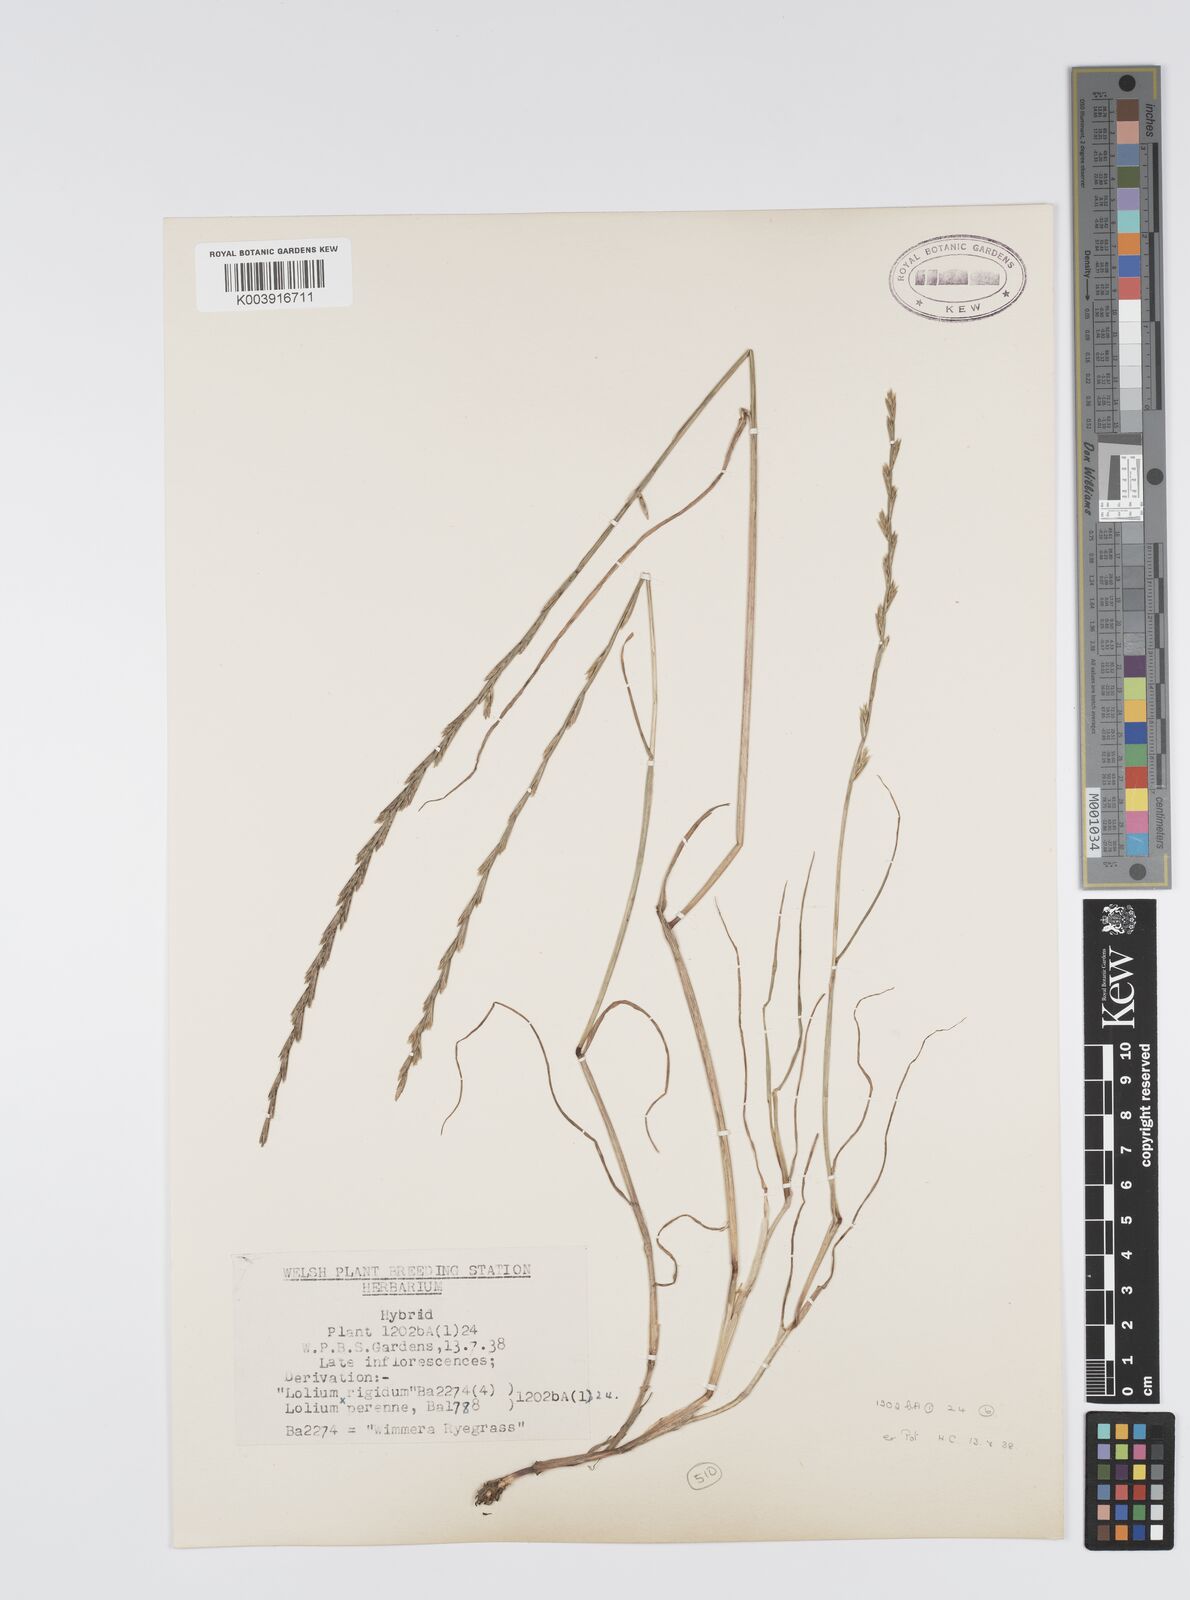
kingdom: Plantae
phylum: Tracheophyta
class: Liliopsida
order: Poales
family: Poaceae
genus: Lolium
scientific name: Lolium perenne
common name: Perennial ryegrass
